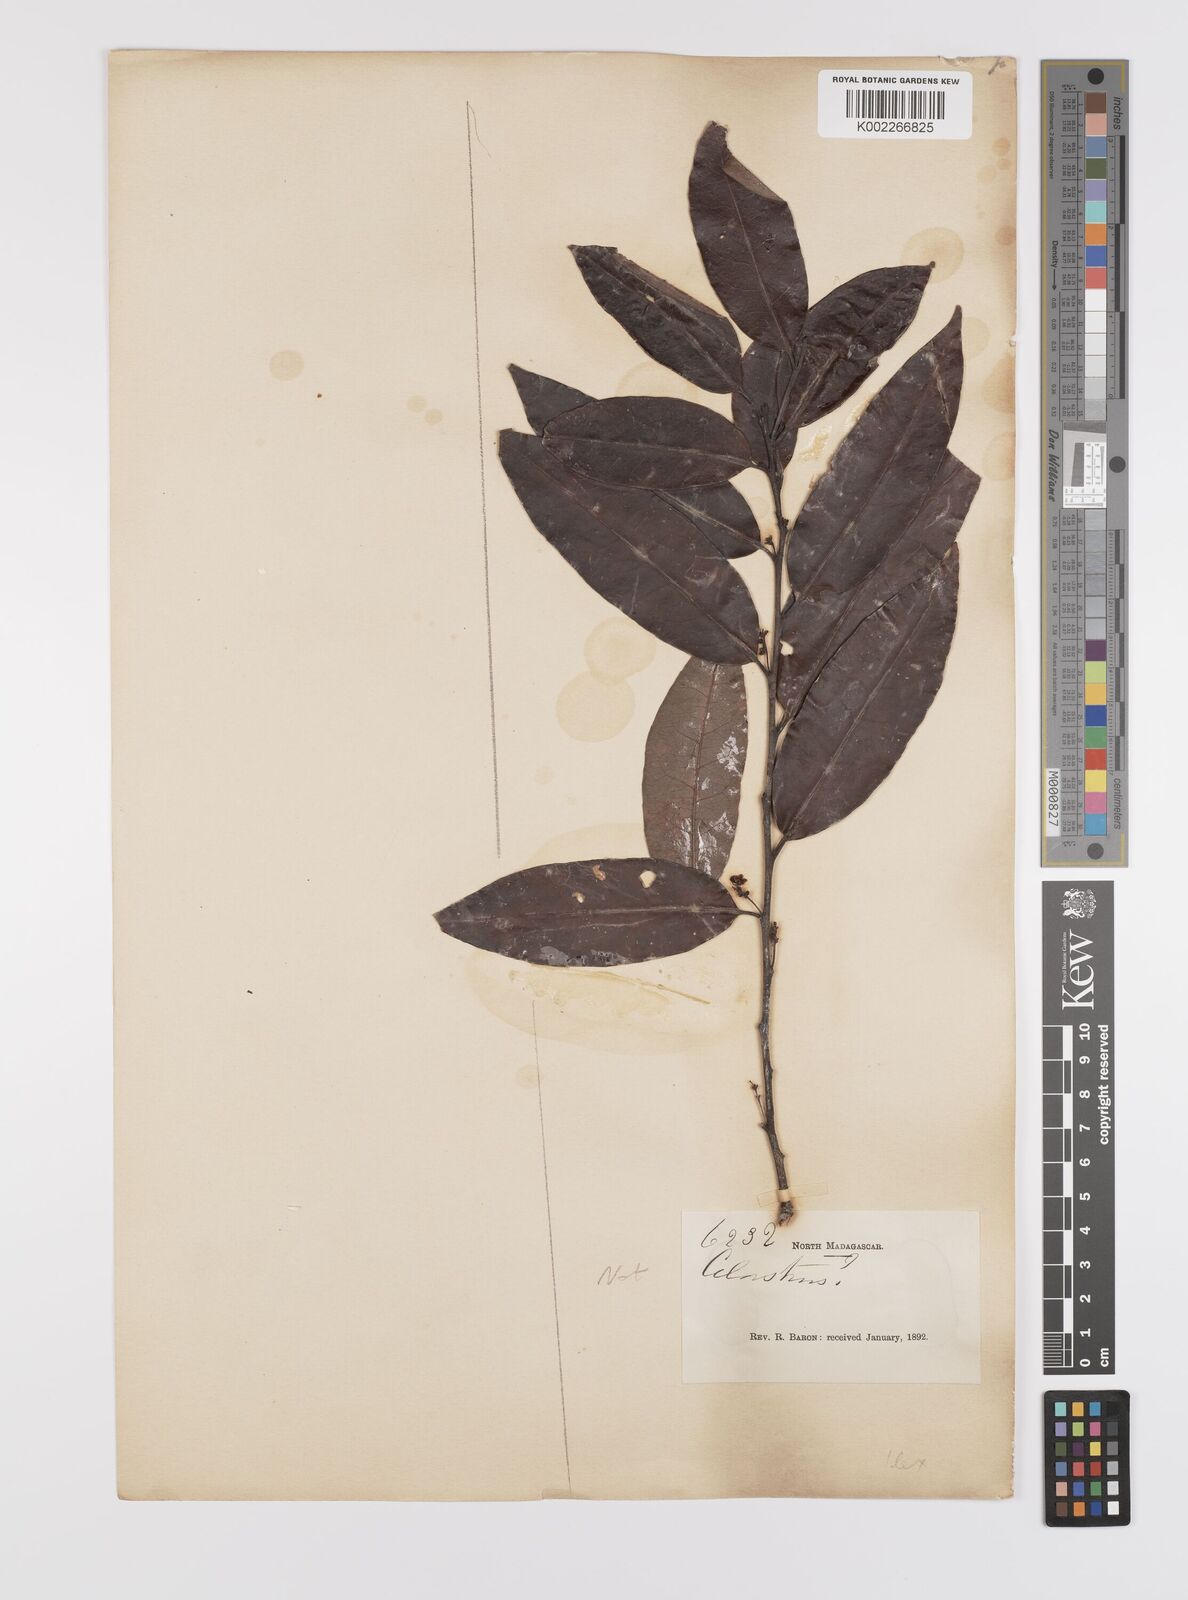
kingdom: Plantae
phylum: Tracheophyta
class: Magnoliopsida
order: Celastrales
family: Celastraceae
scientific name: Celastraceae
